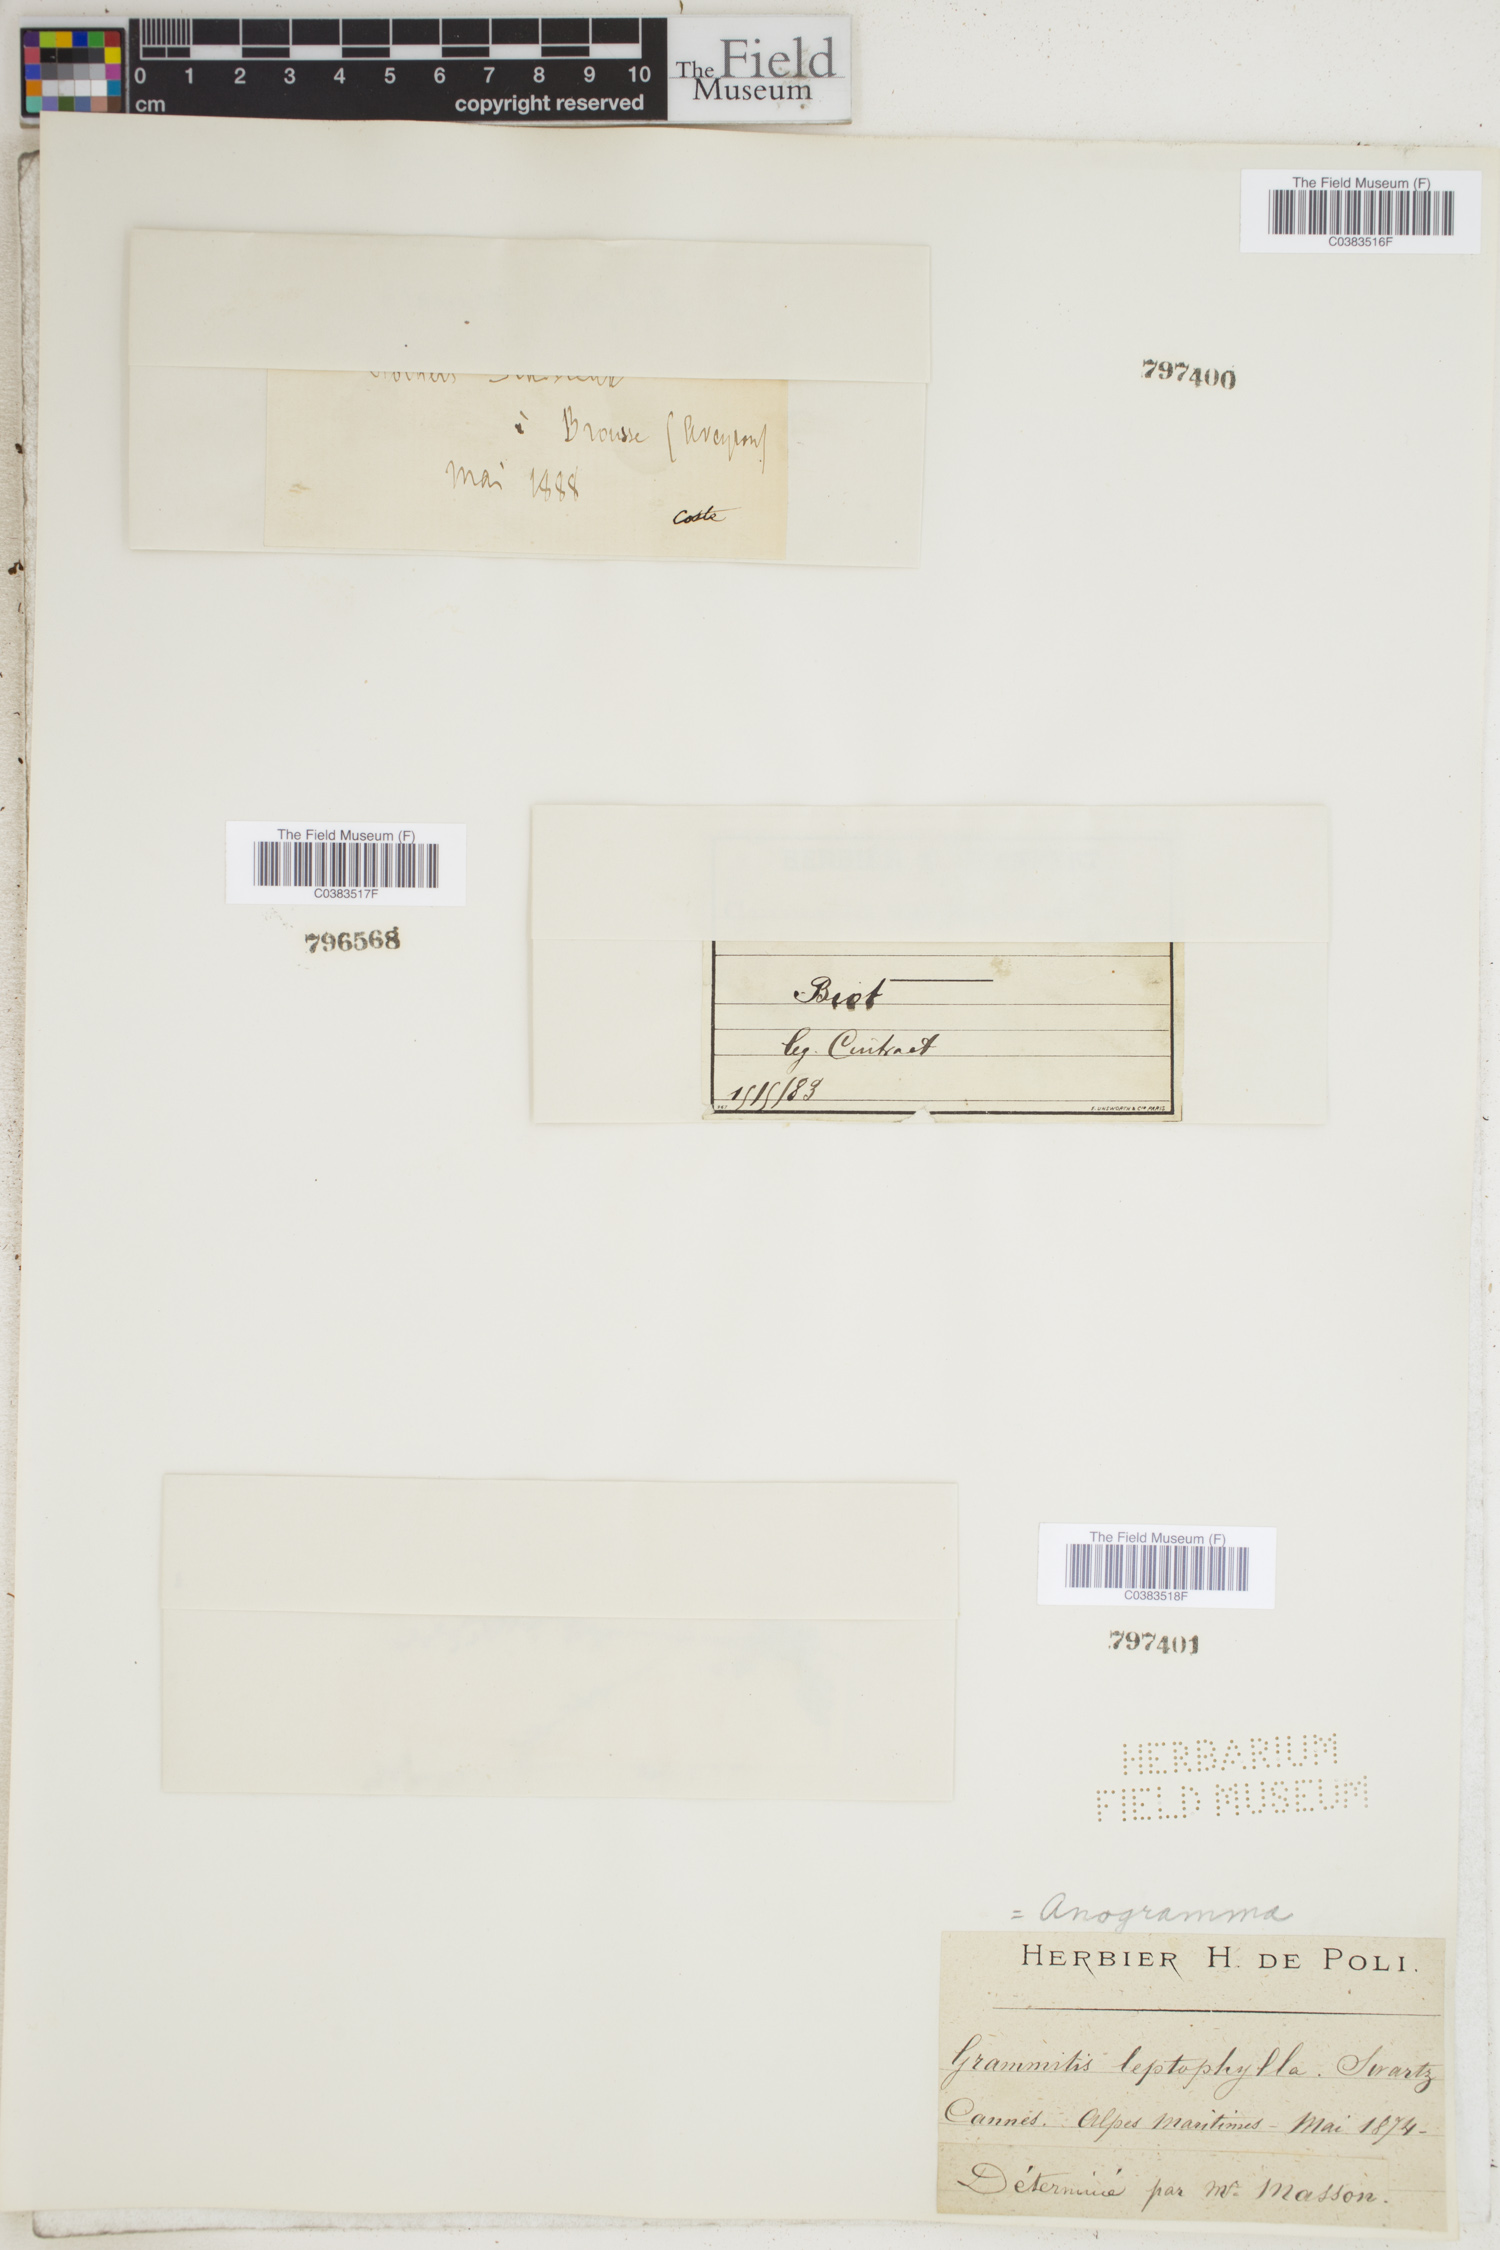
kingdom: Plantae
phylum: Tracheophyta
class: Polypodiopsida
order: Polypodiales
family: Pteridaceae
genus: Anogramma
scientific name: Anogramma leptophylla
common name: Jersey fern
